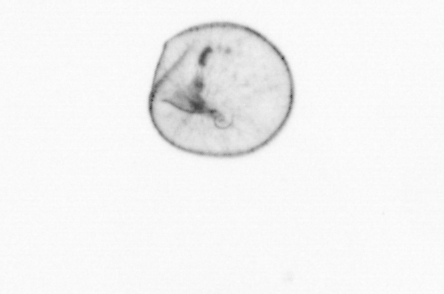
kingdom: Chromista
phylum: Myzozoa
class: Dinophyceae
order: Noctilucales
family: Noctilucaceae
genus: Noctiluca
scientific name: Noctiluca scintillans
